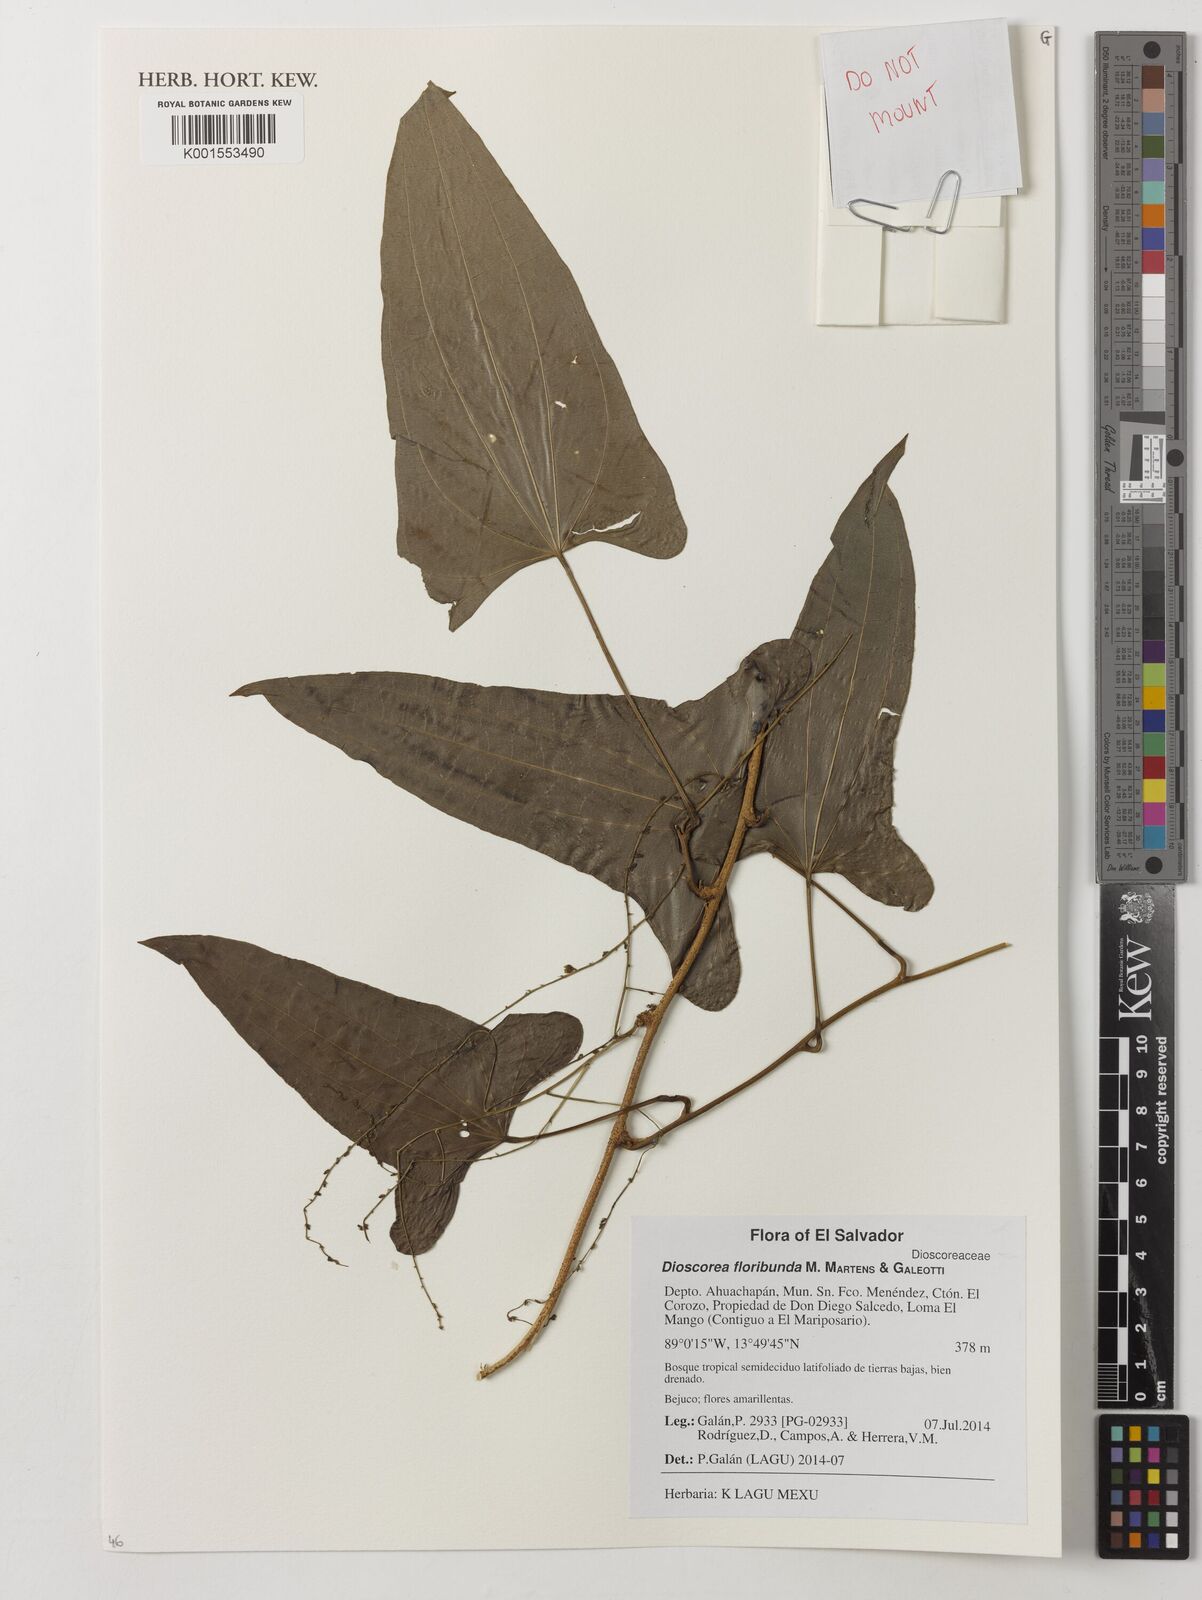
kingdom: Plantae
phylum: Tracheophyta
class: Liliopsida
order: Dioscoreales
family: Dioscoreaceae
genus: Dioscorea
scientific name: Dioscorea floribunda
